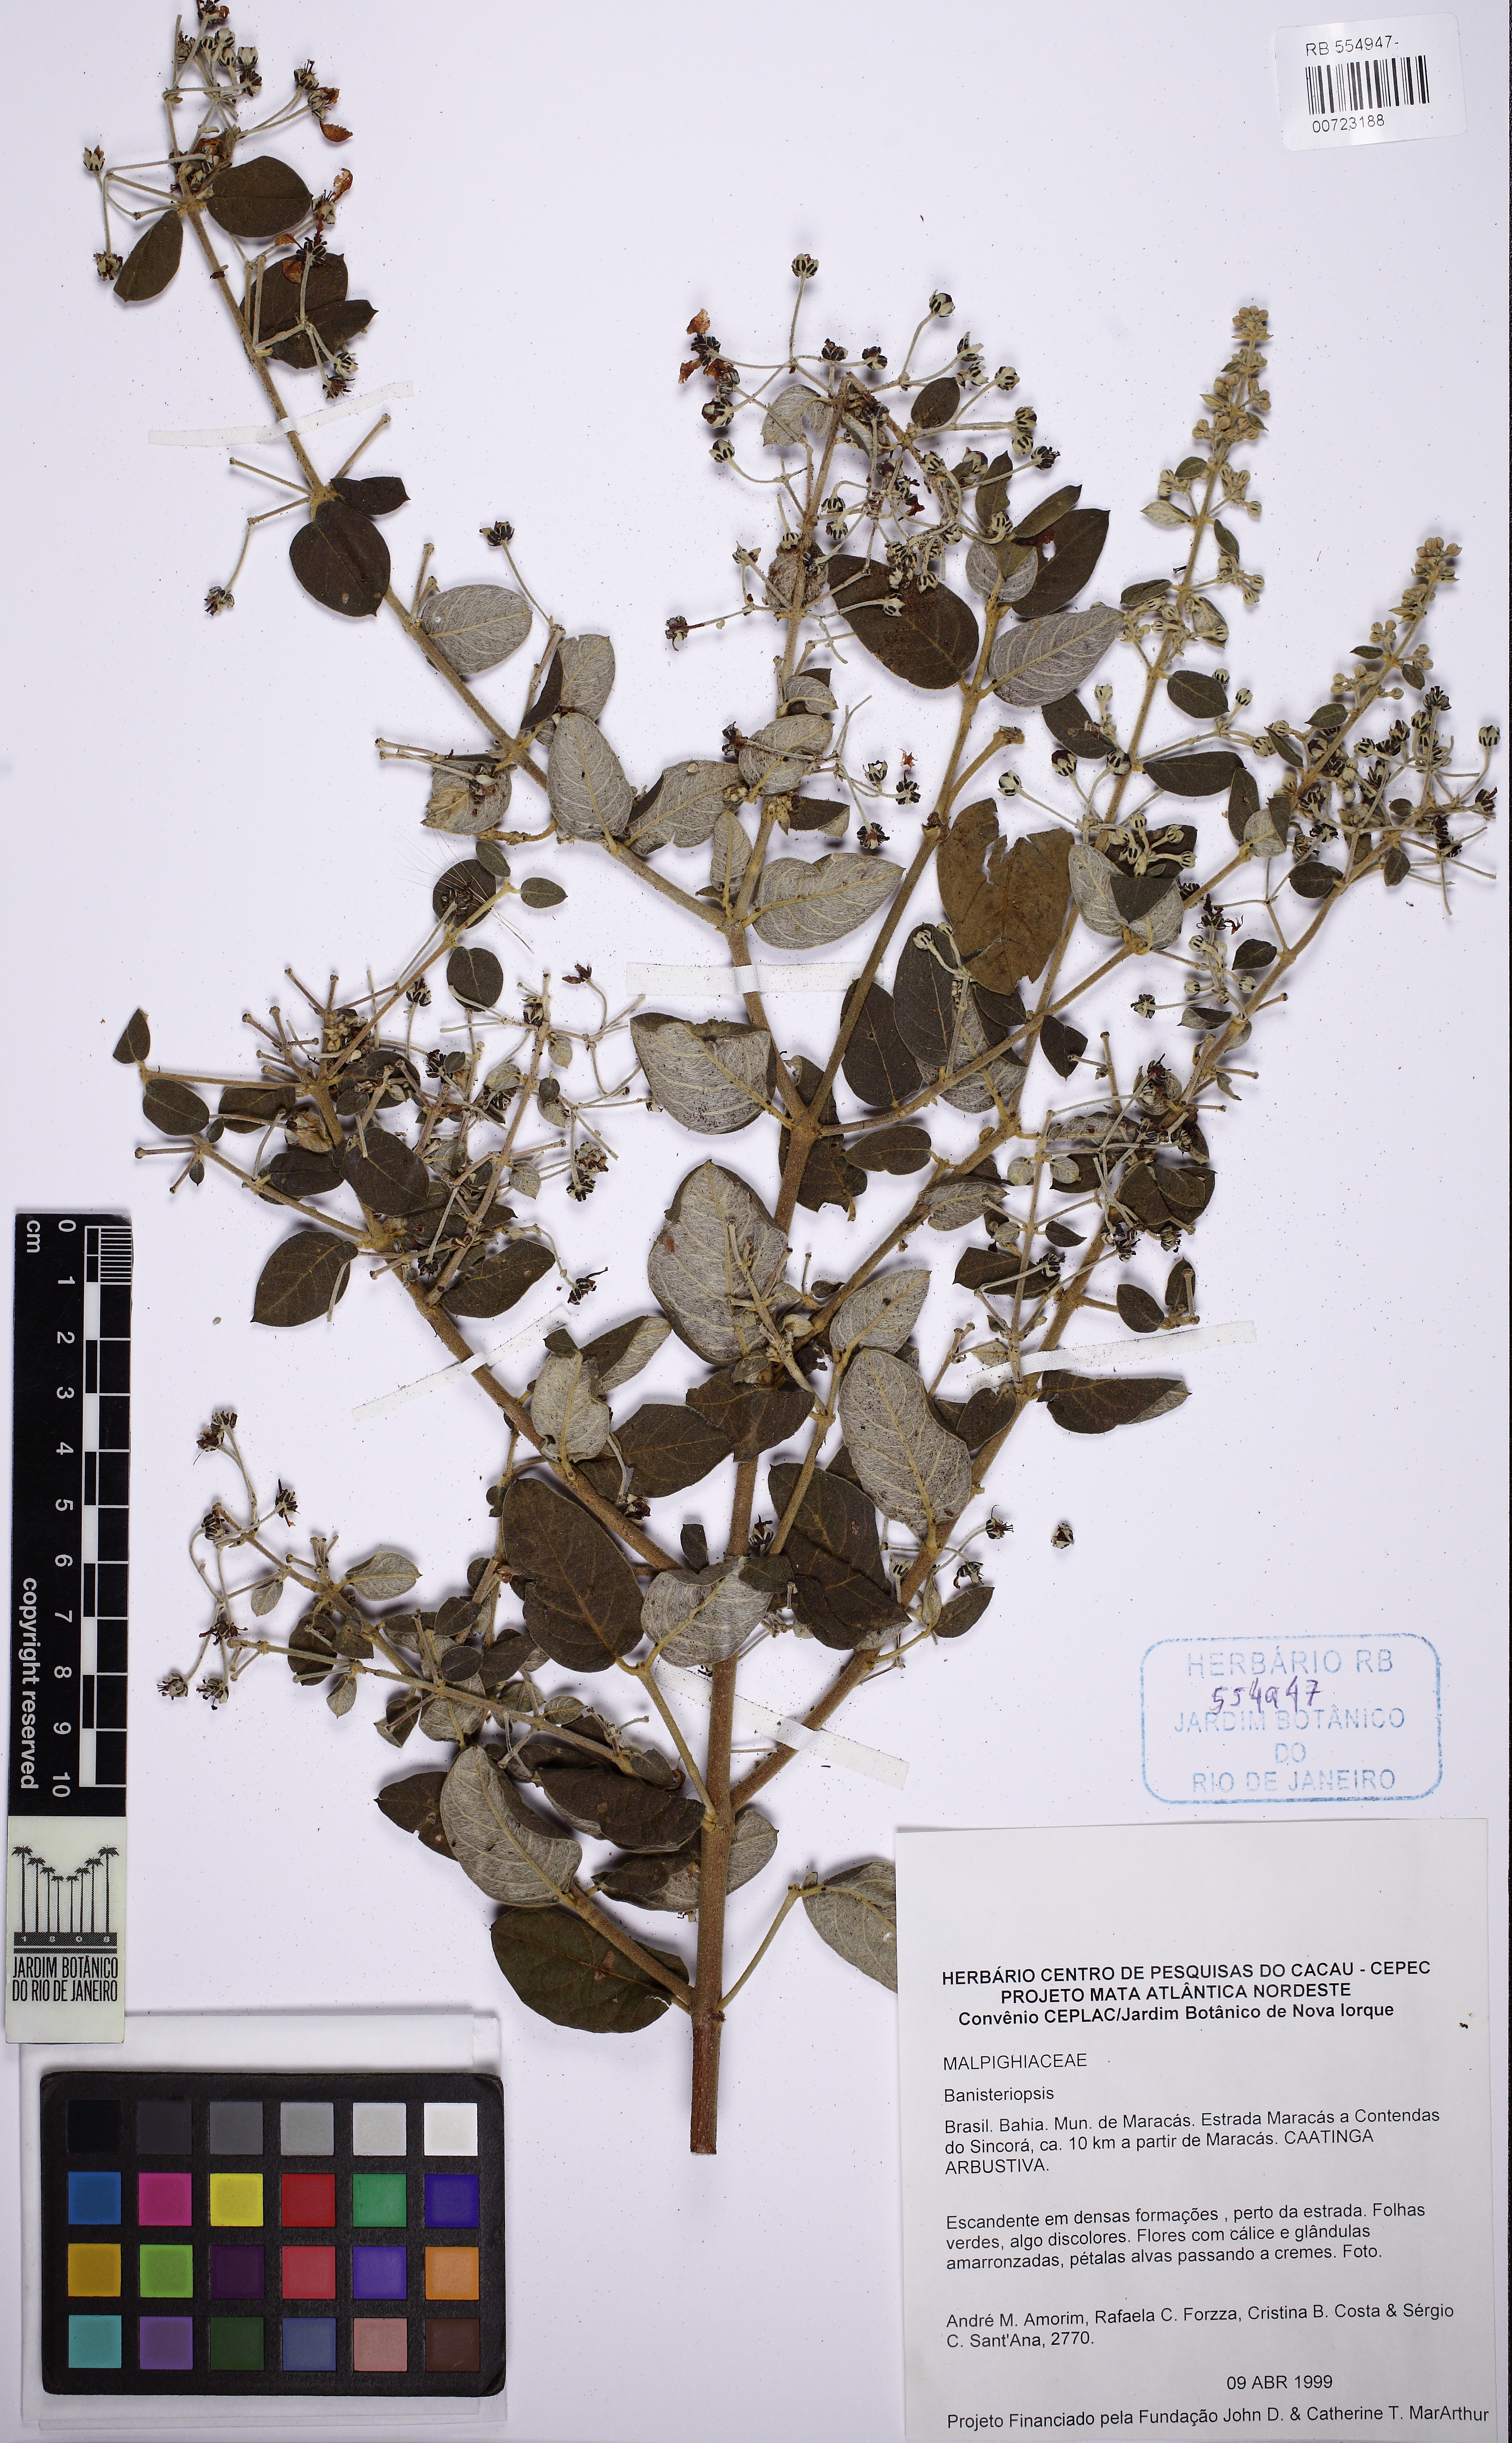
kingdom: Plantae
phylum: Tracheophyta
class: Magnoliopsida
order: Malpighiales
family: Malpighiaceae
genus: Banisteriopsis
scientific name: Banisteriopsis
